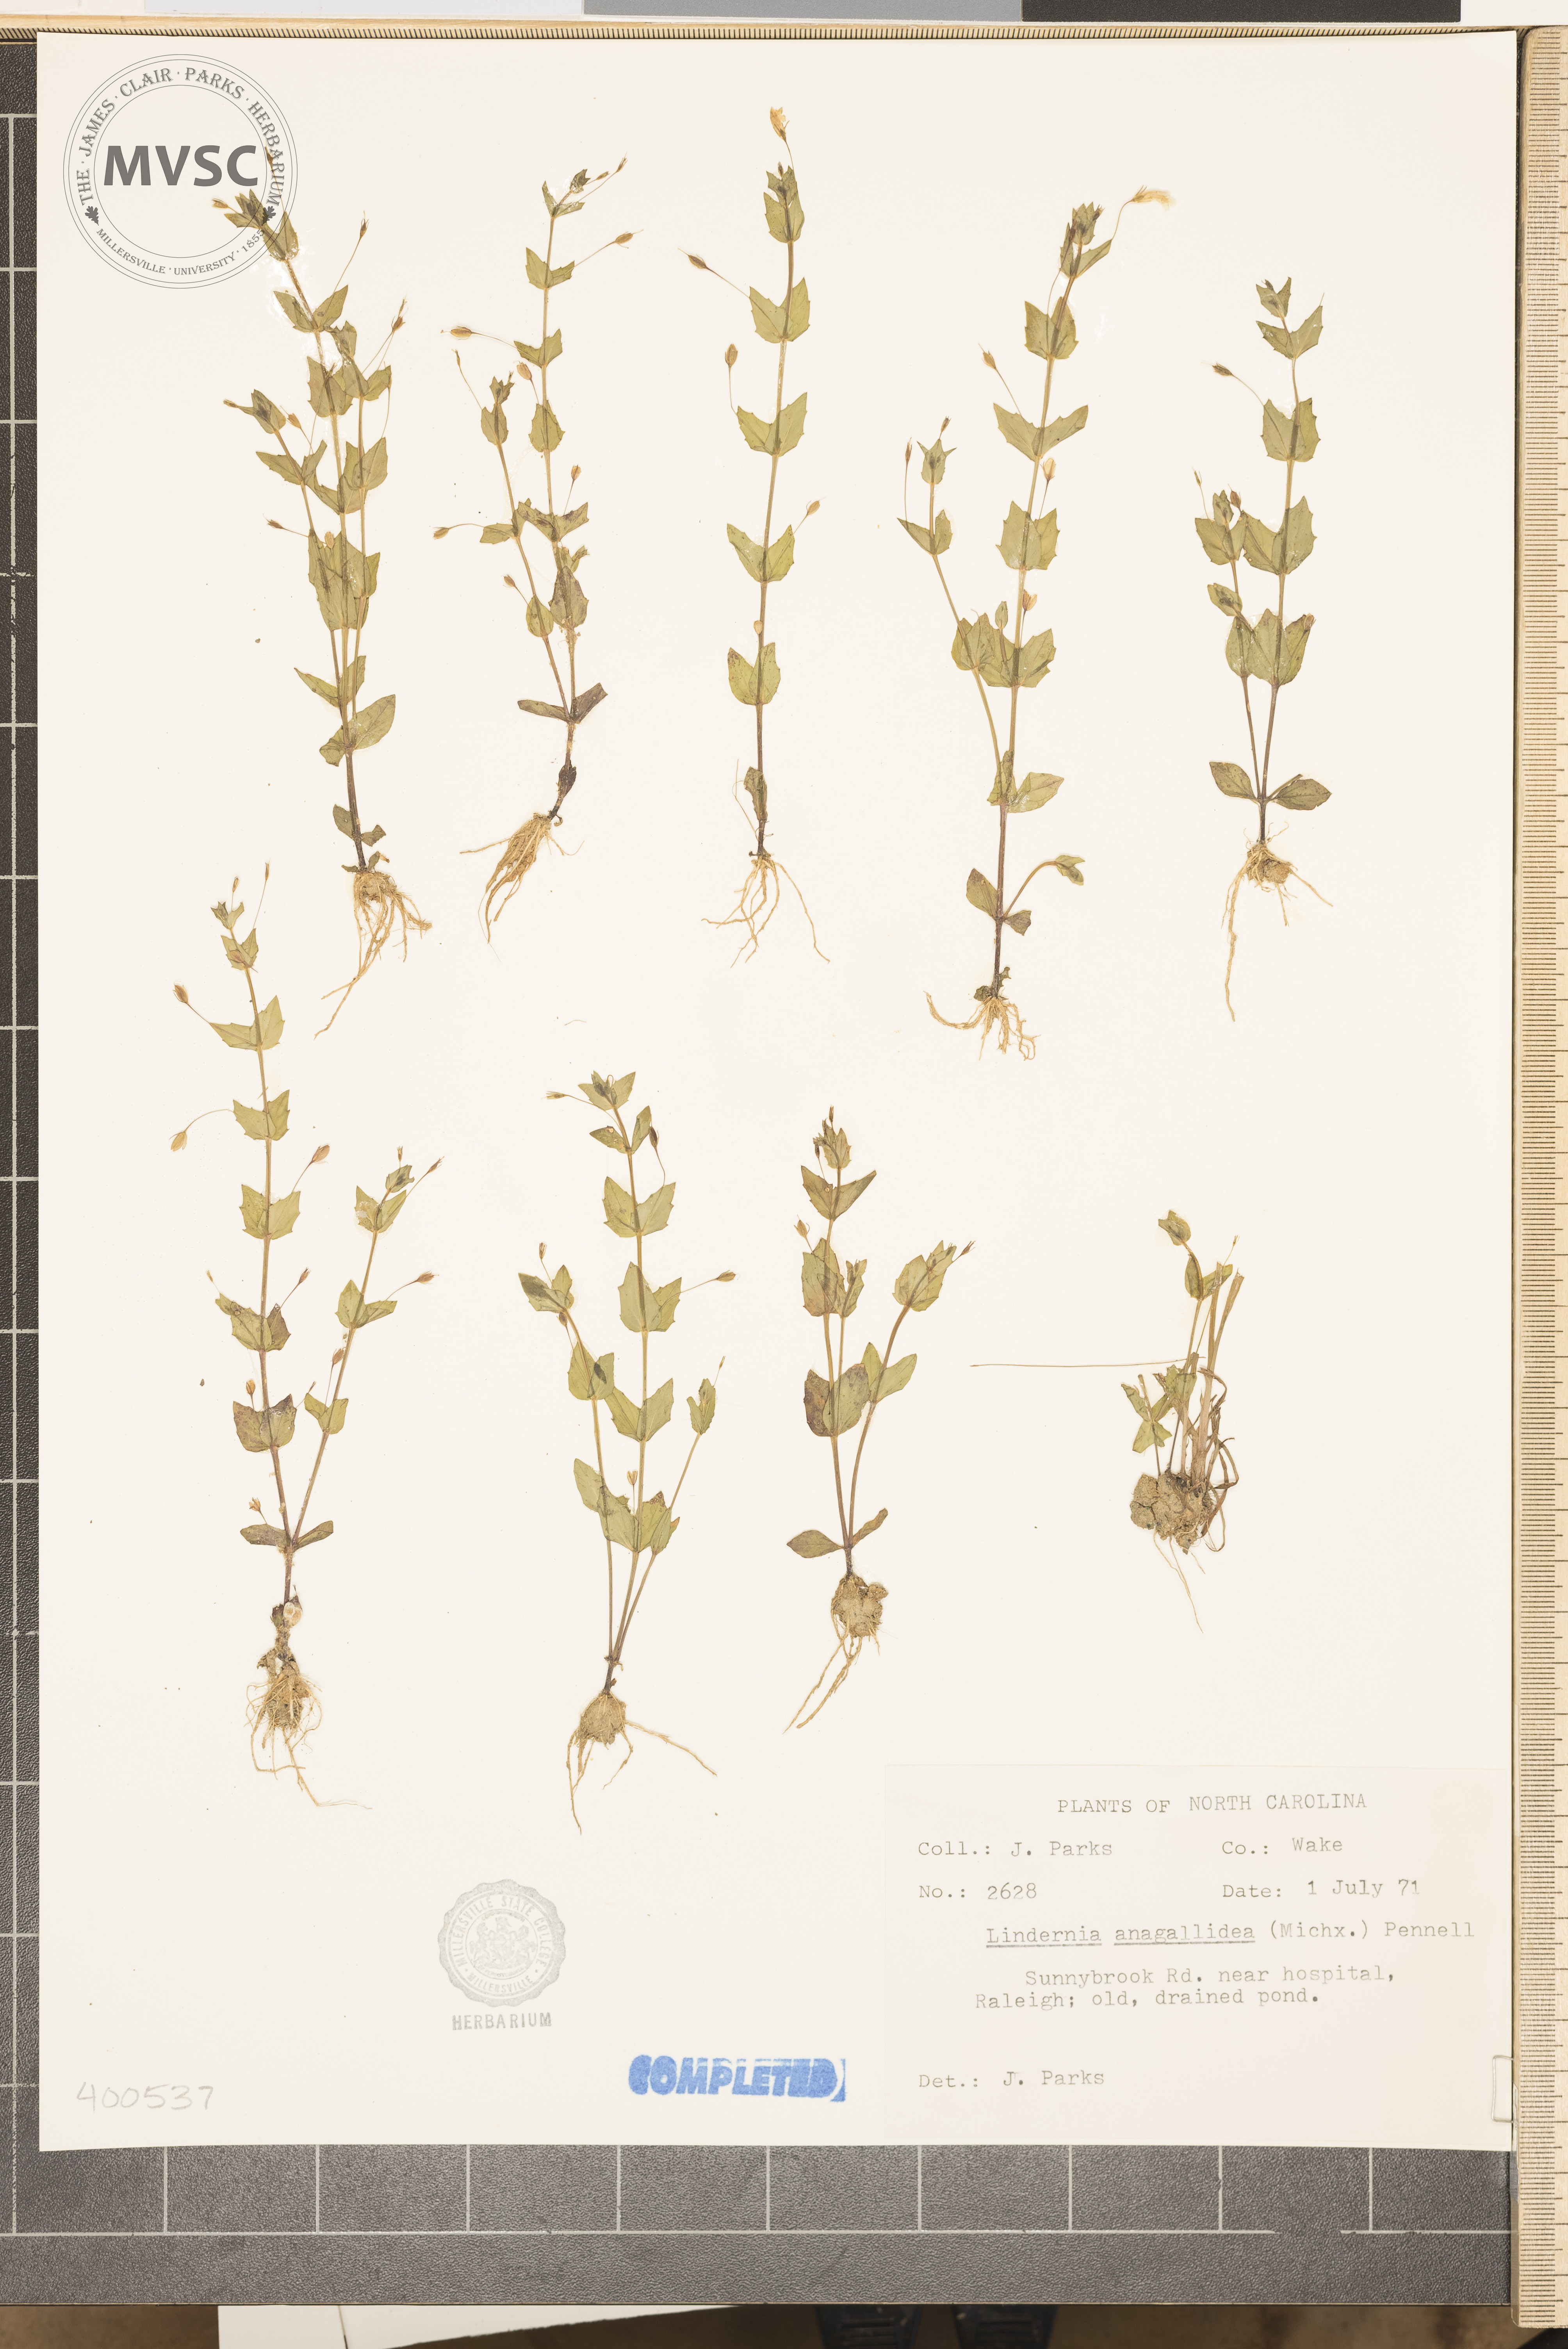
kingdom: Plantae
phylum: Tracheophyta
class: Magnoliopsida
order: Lamiales
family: Linderniaceae
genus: Lindernia
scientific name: Lindernia dubia
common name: Annual false pimpernel
